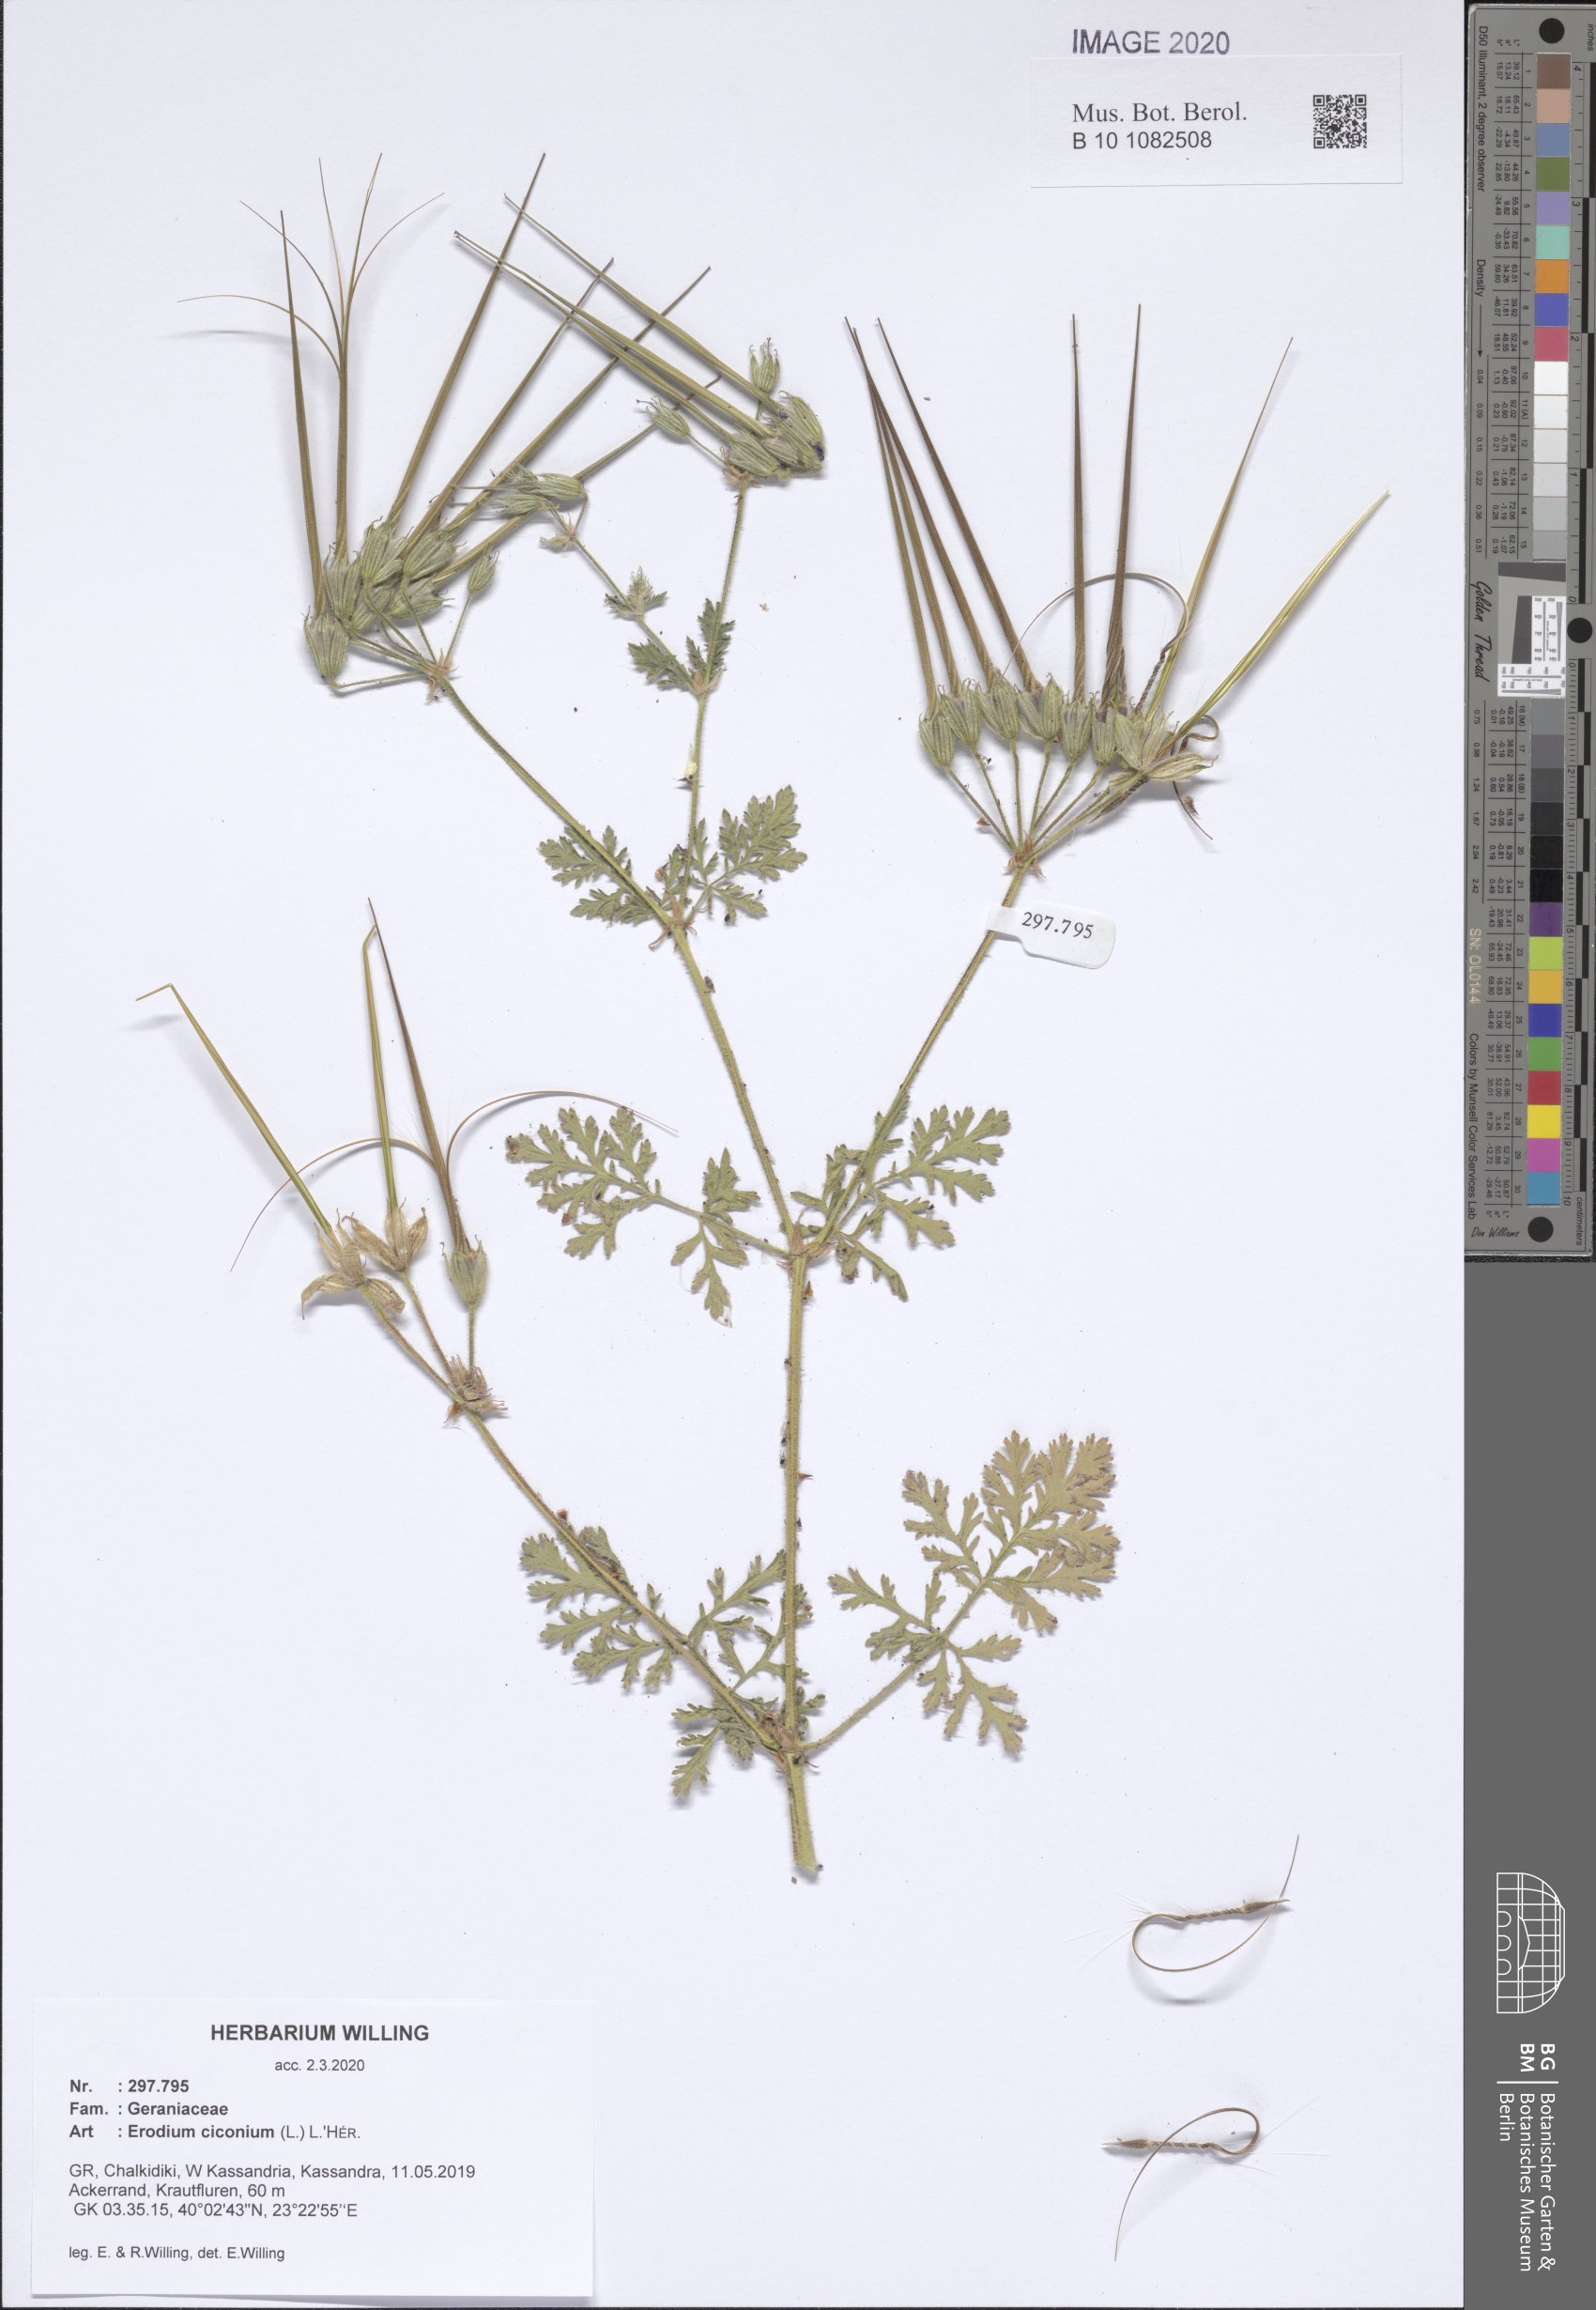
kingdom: Plantae
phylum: Tracheophyta
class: Magnoliopsida
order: Geraniales
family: Geraniaceae
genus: Erodium
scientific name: Erodium ciconium
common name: Common stork's bill
